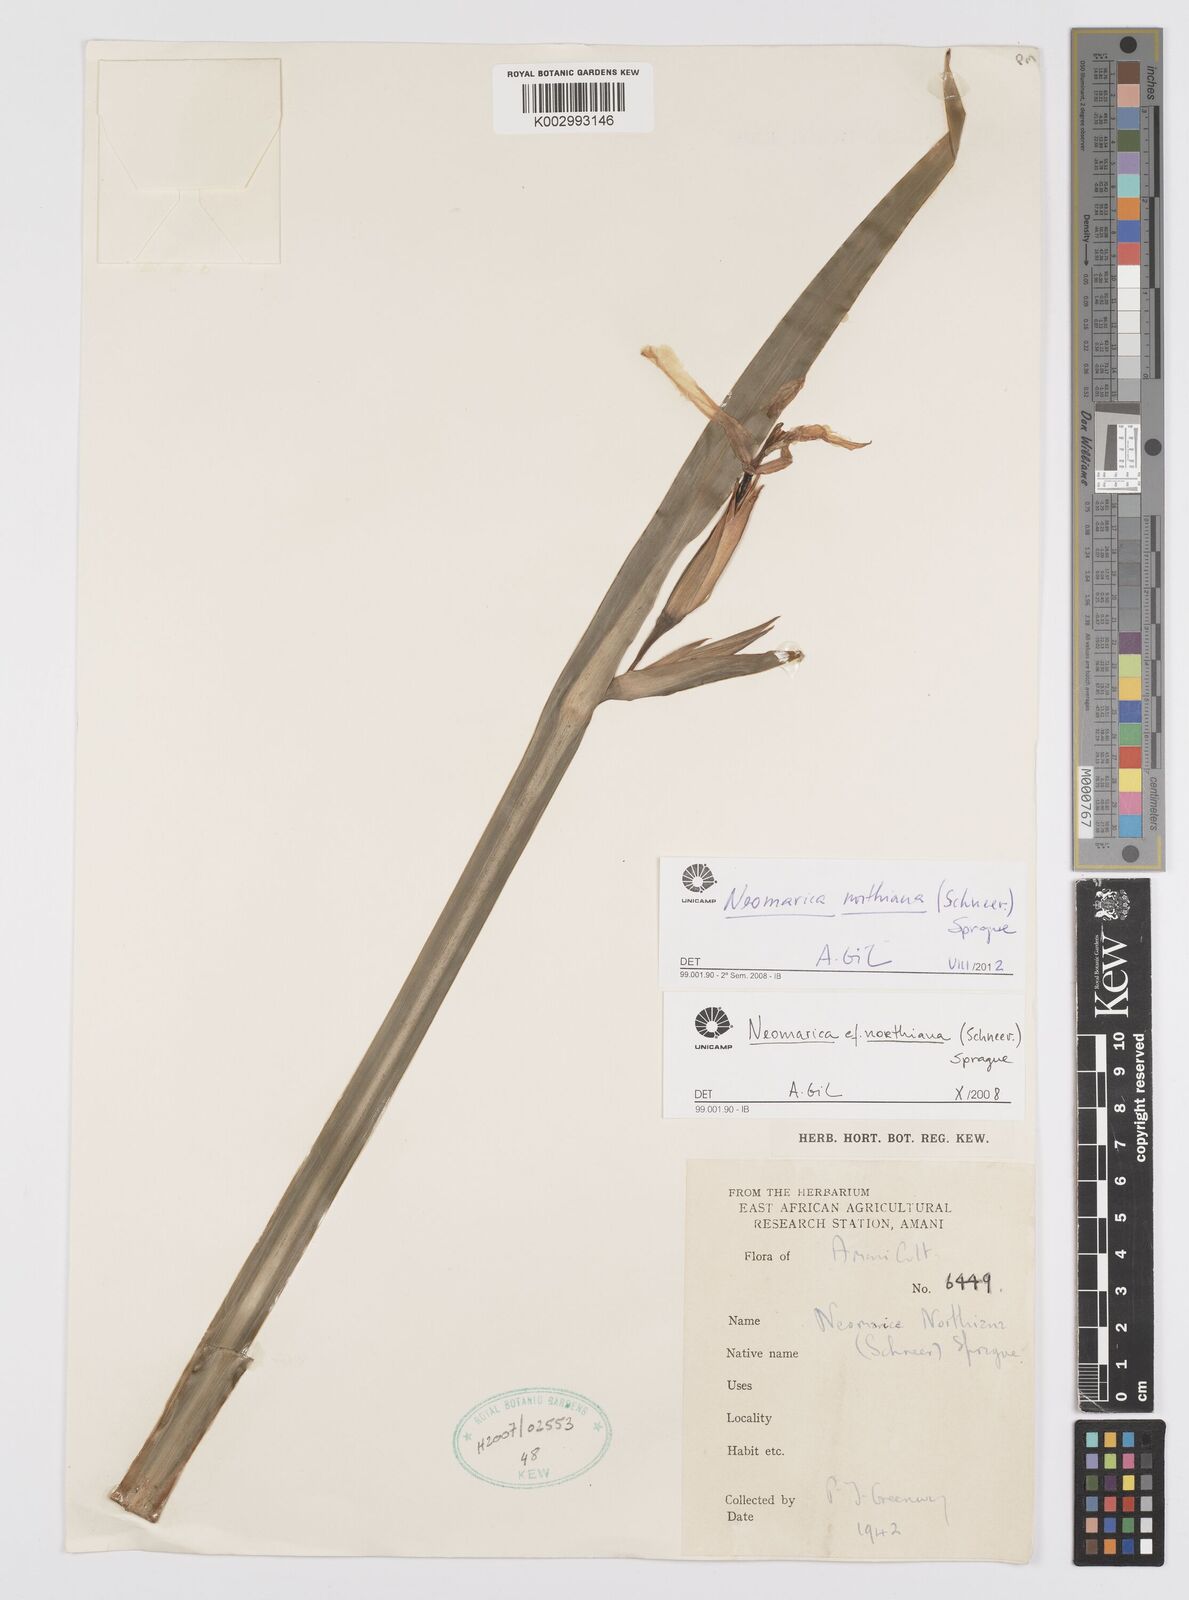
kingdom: Plantae
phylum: Tracheophyta
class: Liliopsida
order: Asparagales
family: Iridaceae
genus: Trimezia
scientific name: Trimezia northiana
